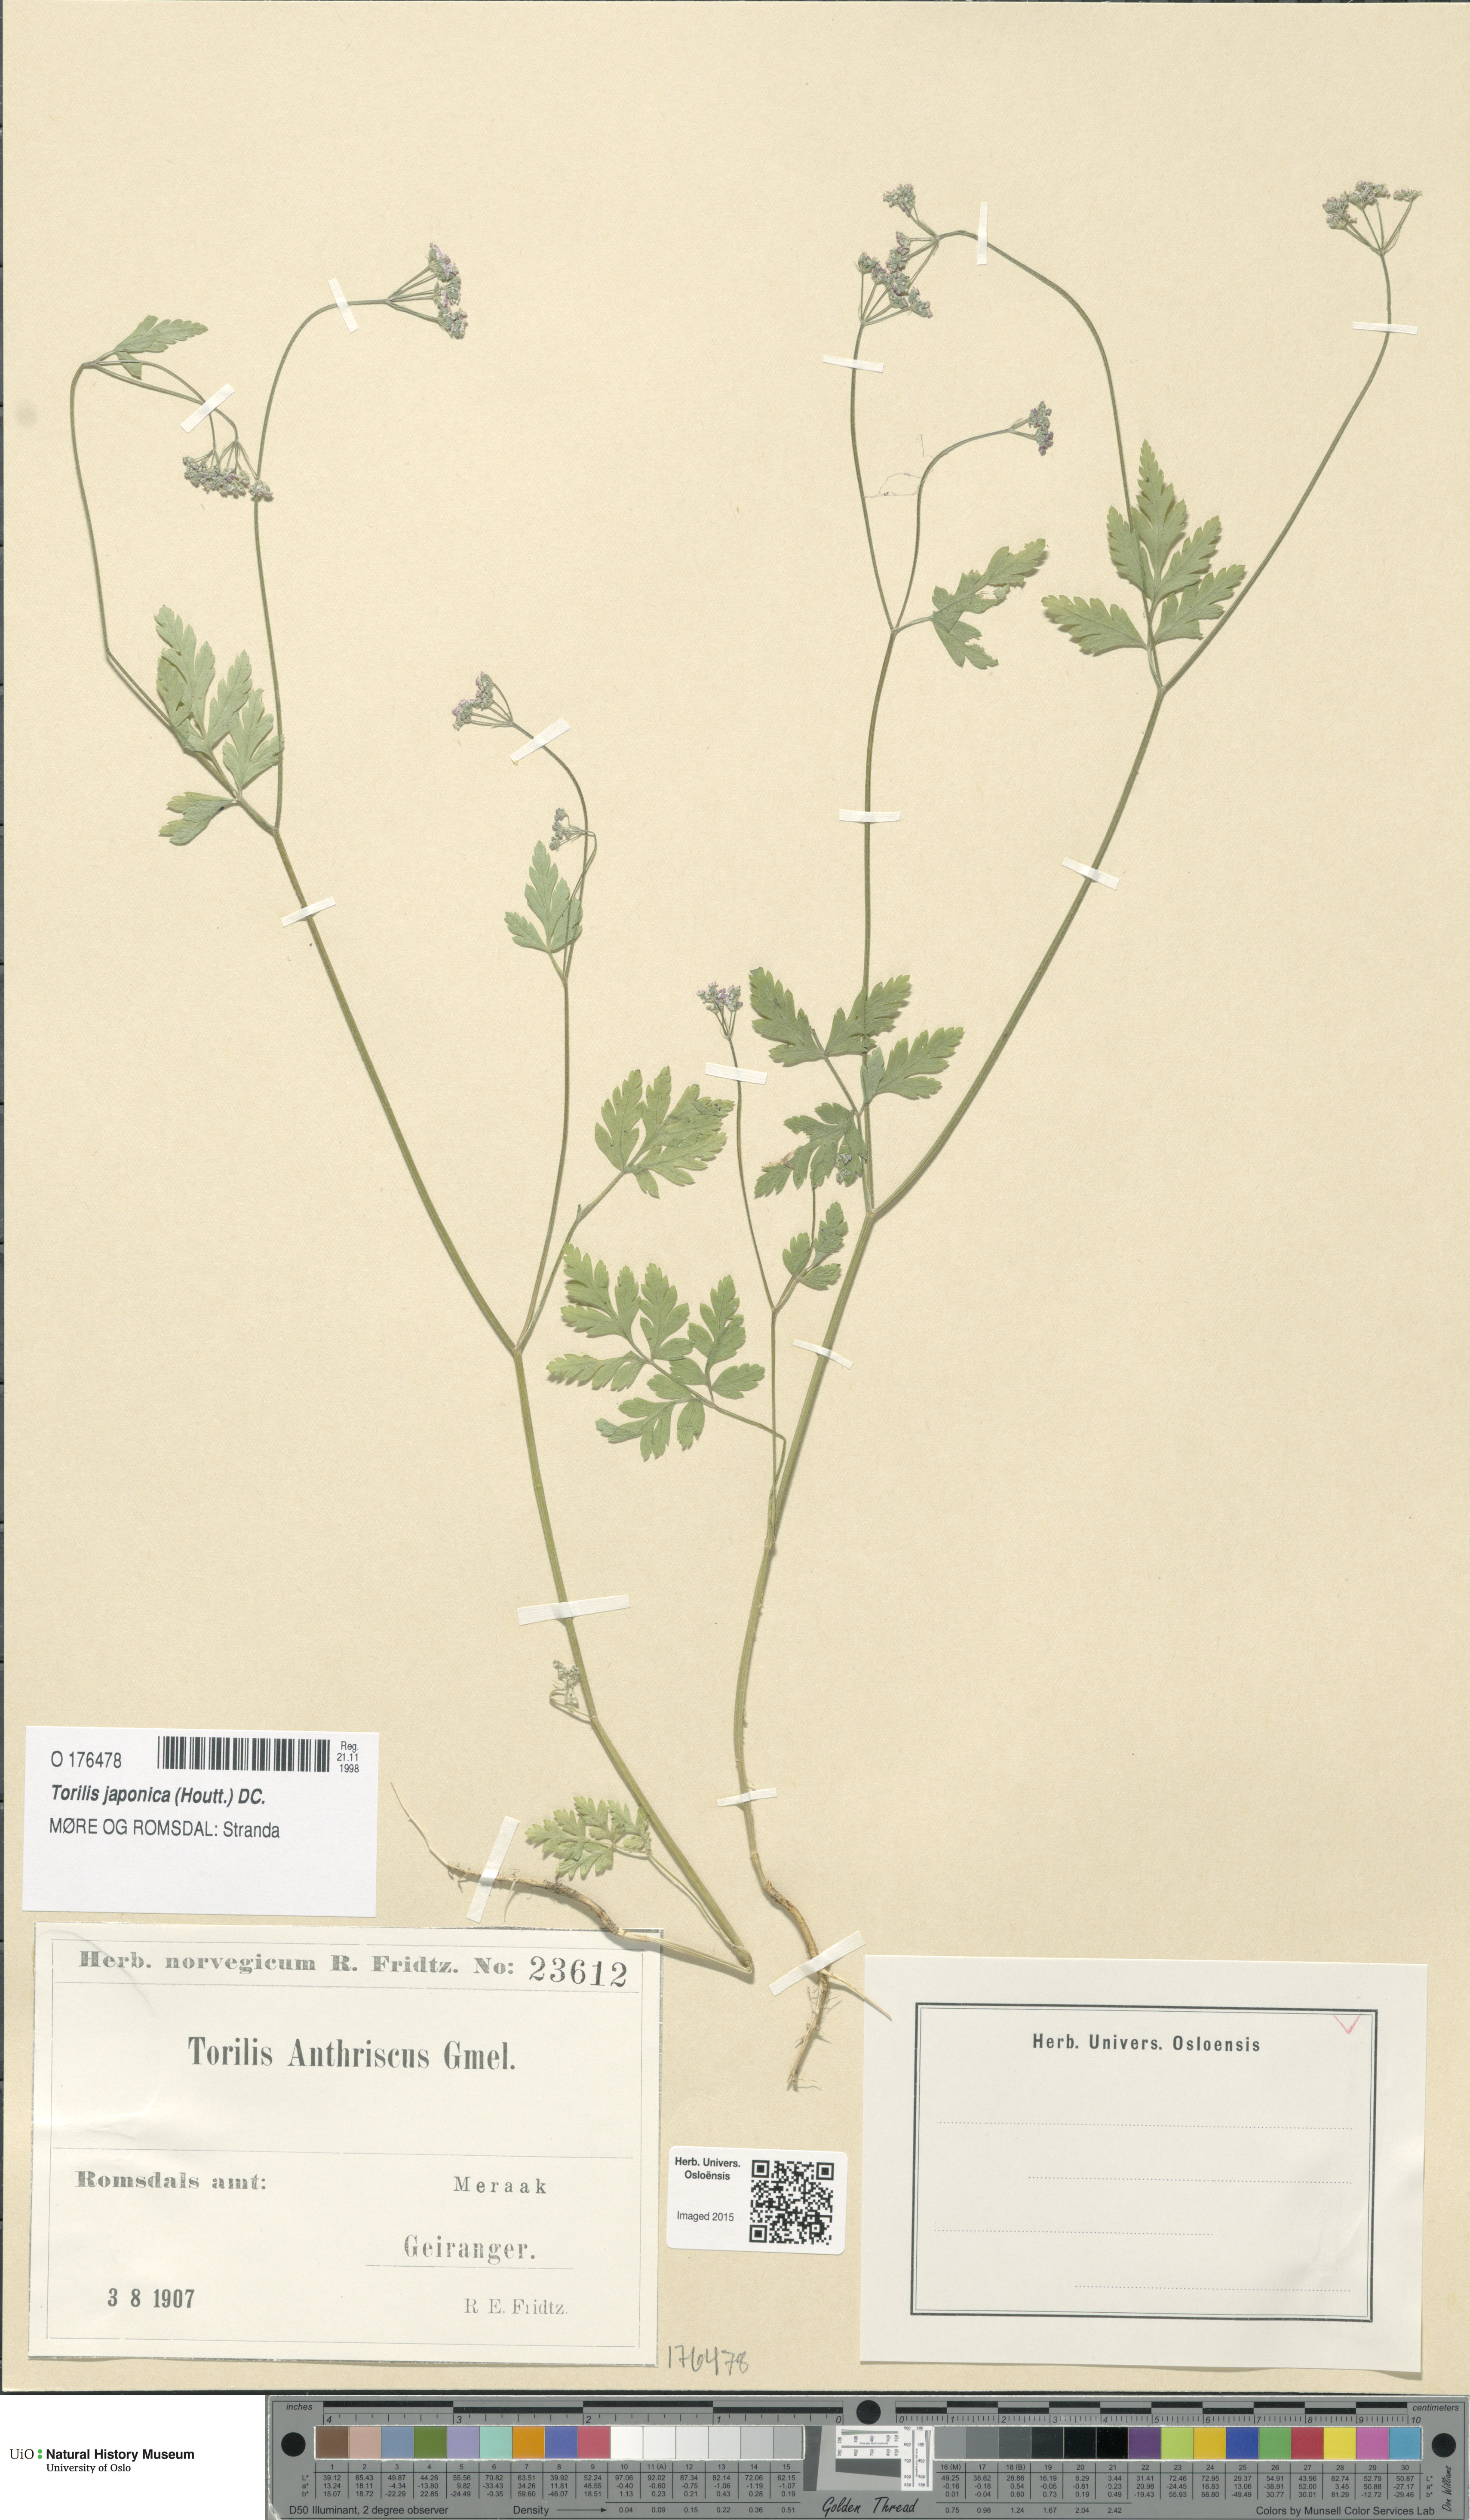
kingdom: Plantae
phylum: Tracheophyta
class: Magnoliopsida
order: Apiales
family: Apiaceae
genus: Torilis
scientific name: Torilis japonica
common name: Upright hedge-parsley
